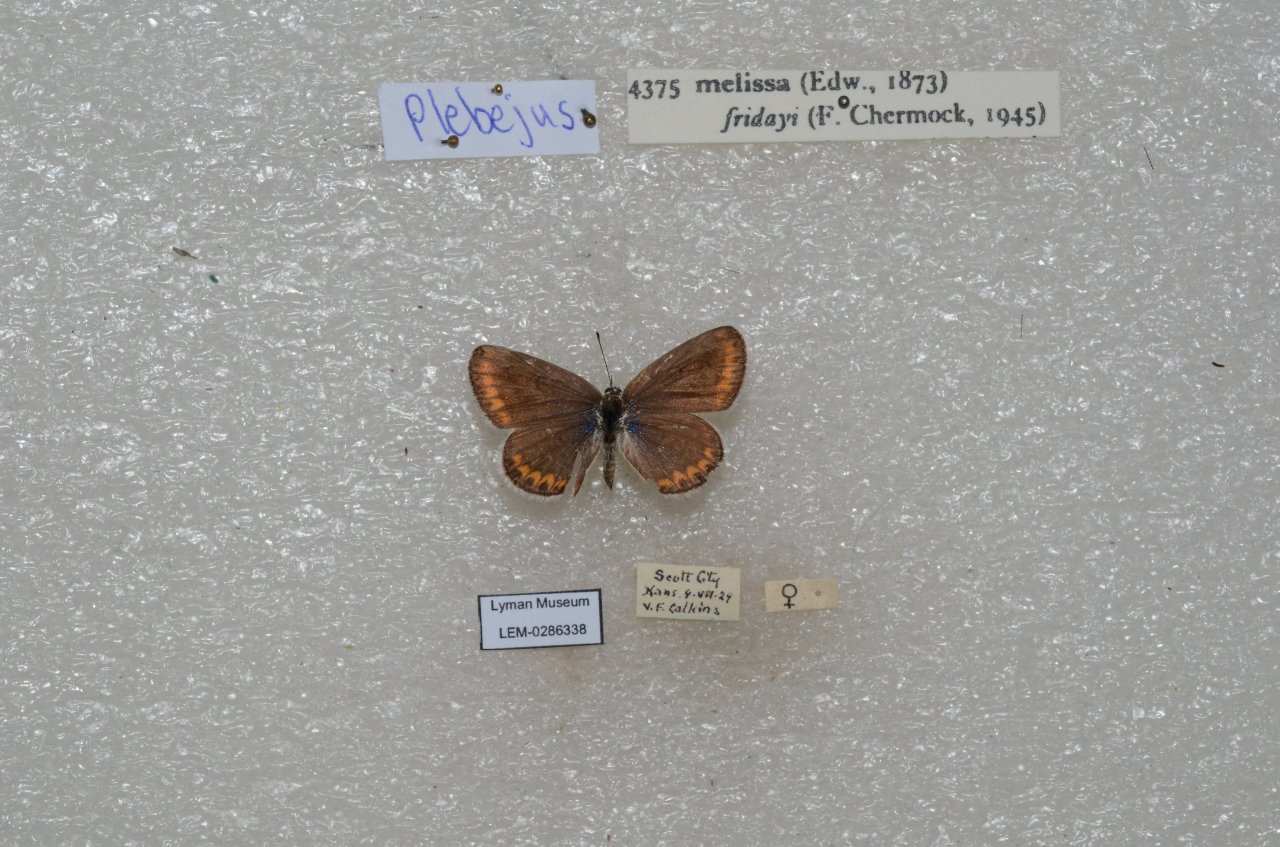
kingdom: Animalia
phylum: Arthropoda
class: Insecta
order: Lepidoptera
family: Lycaenidae
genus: Lycaeides
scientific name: Lycaeides melissa
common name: Melissa Blue
